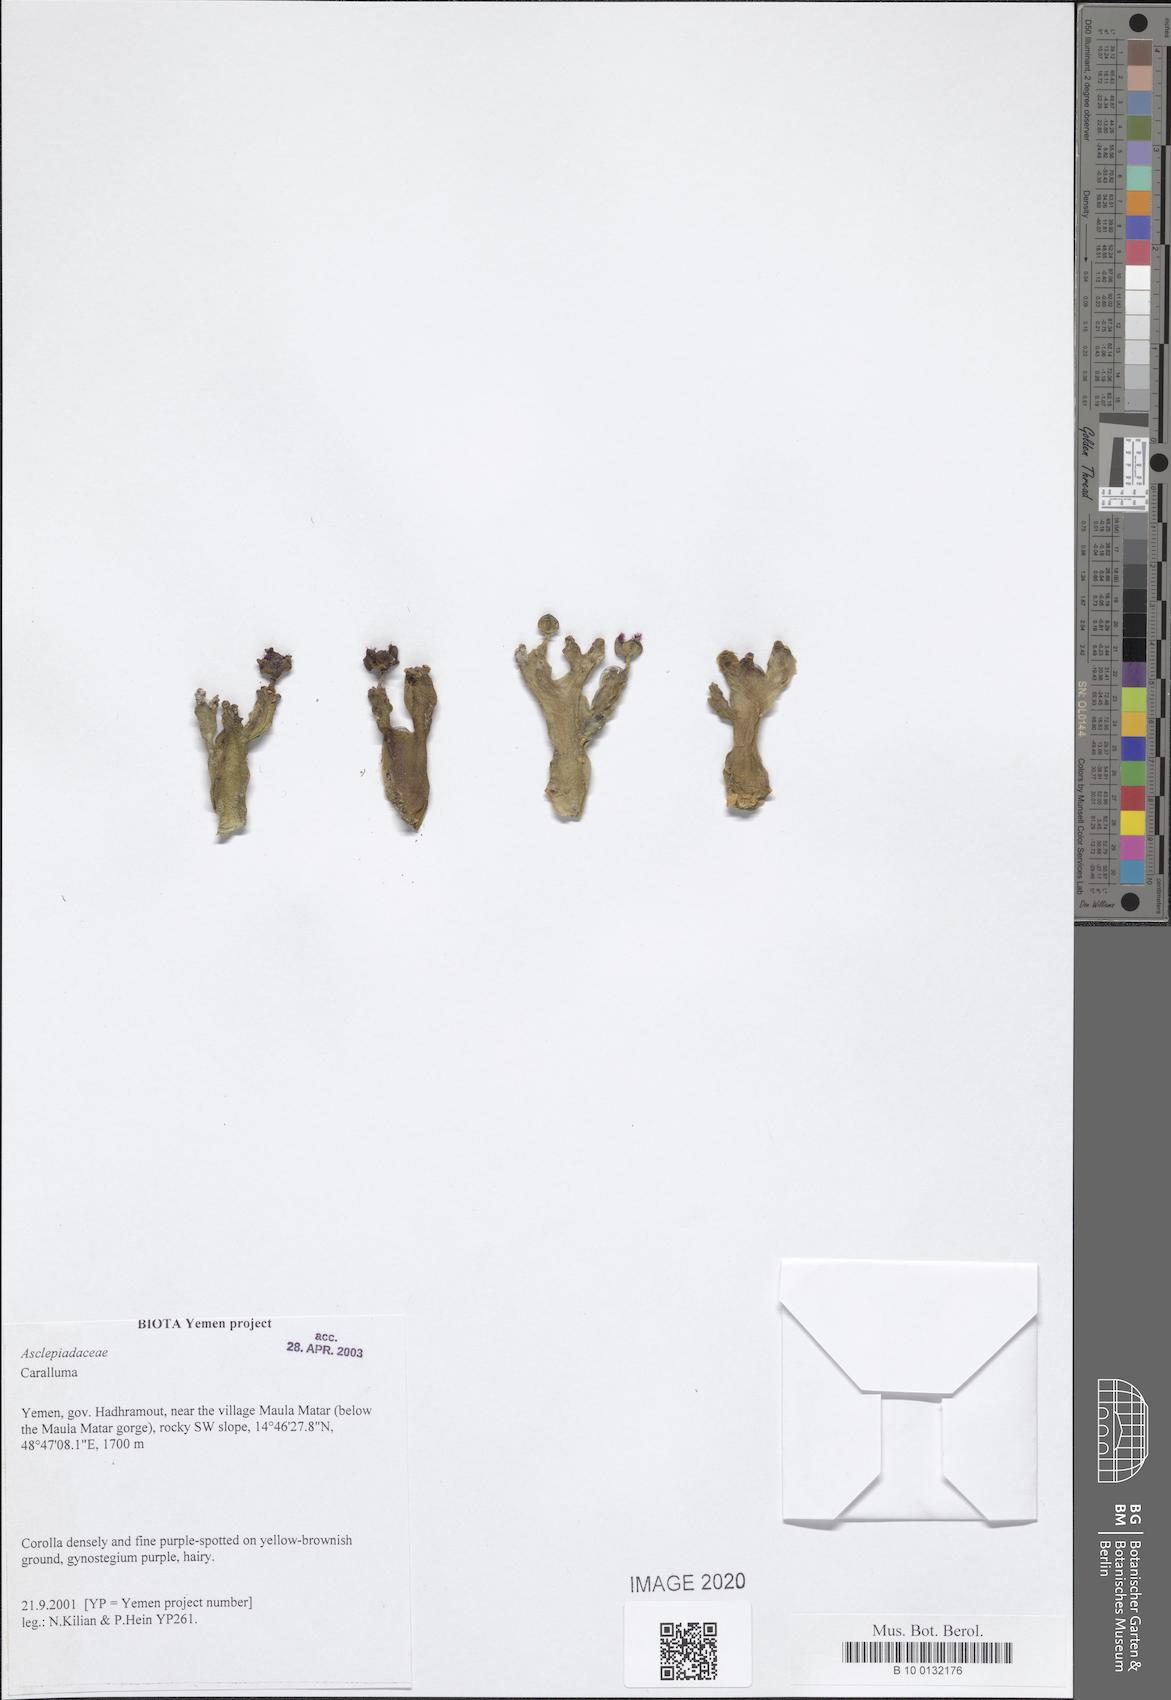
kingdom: Plantae
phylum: Tracheophyta
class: Magnoliopsida
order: Gentianales
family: Apocynaceae
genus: Ceropegia
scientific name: Ceropegia dolichocarpa
